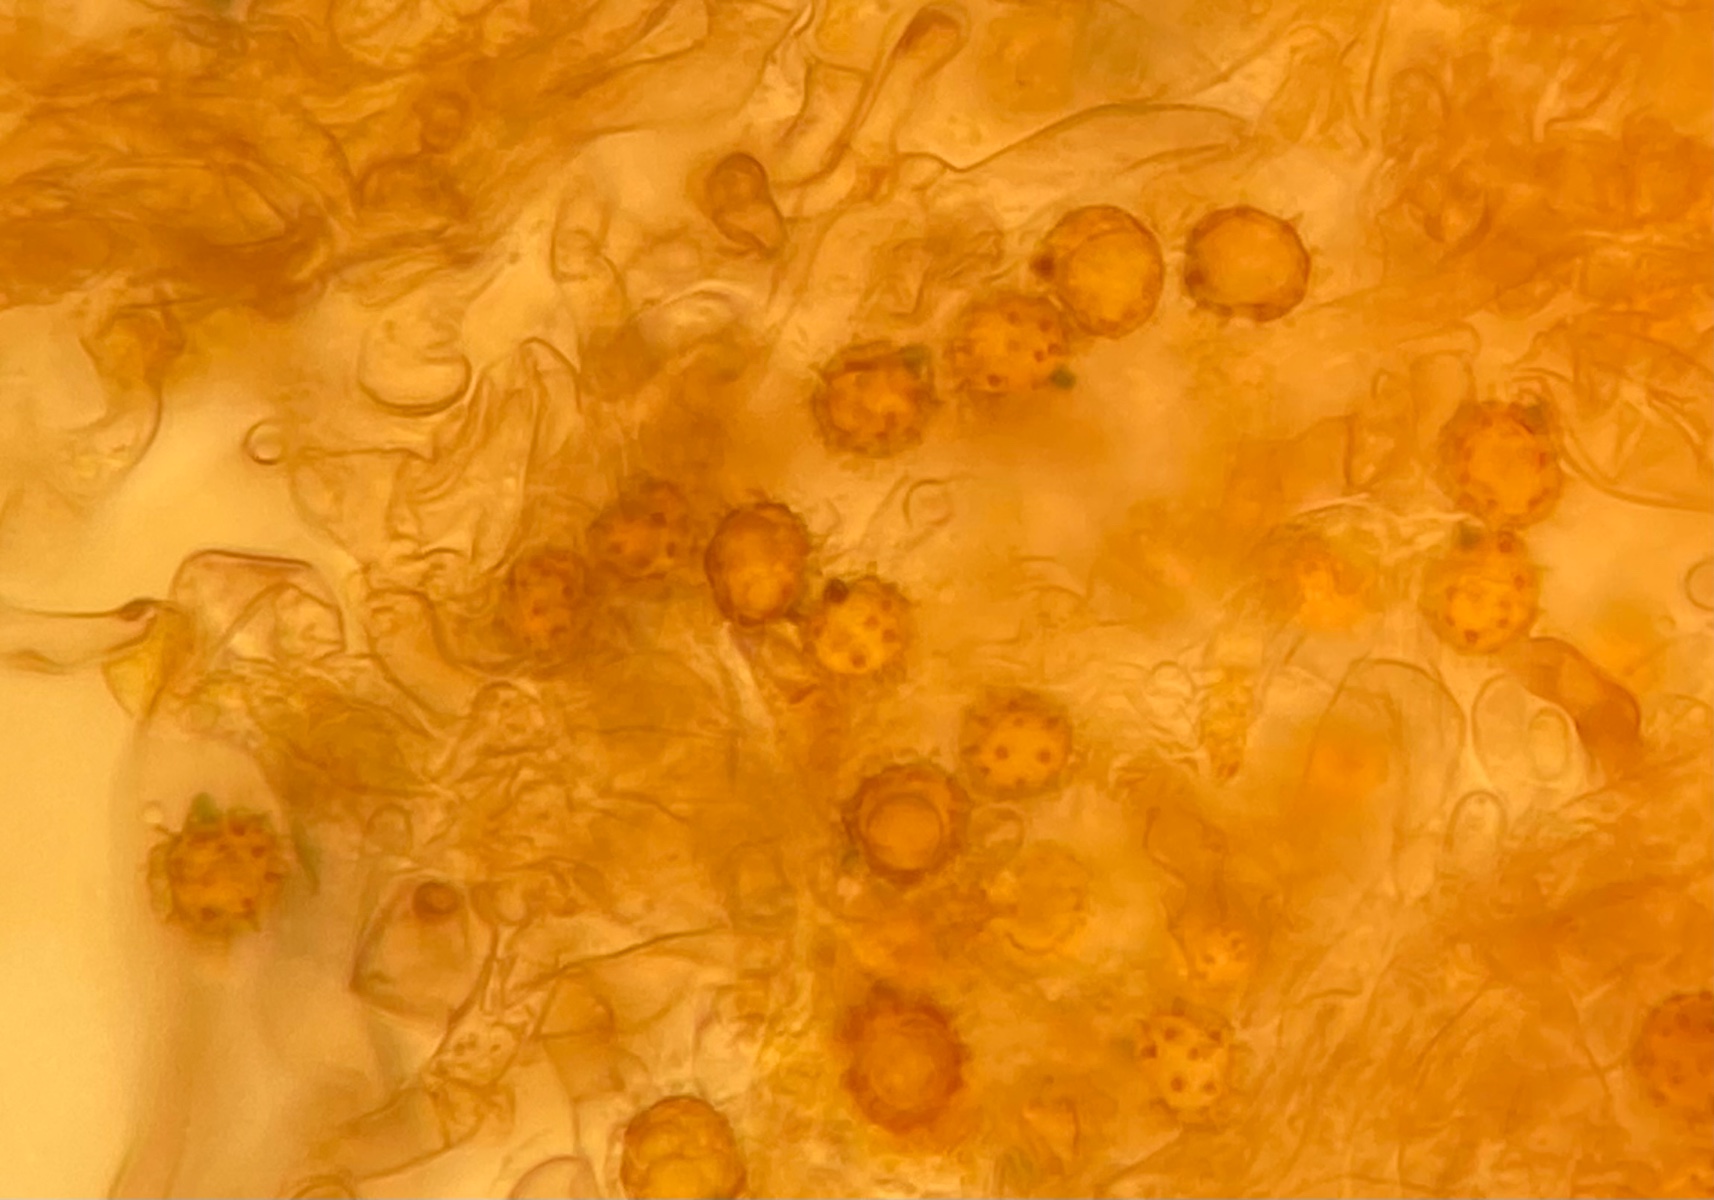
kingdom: Fungi
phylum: Basidiomycota
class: Agaricomycetes
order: Thelephorales
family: Thelephoraceae
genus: Tomentella
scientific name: Tomentella bryophila
